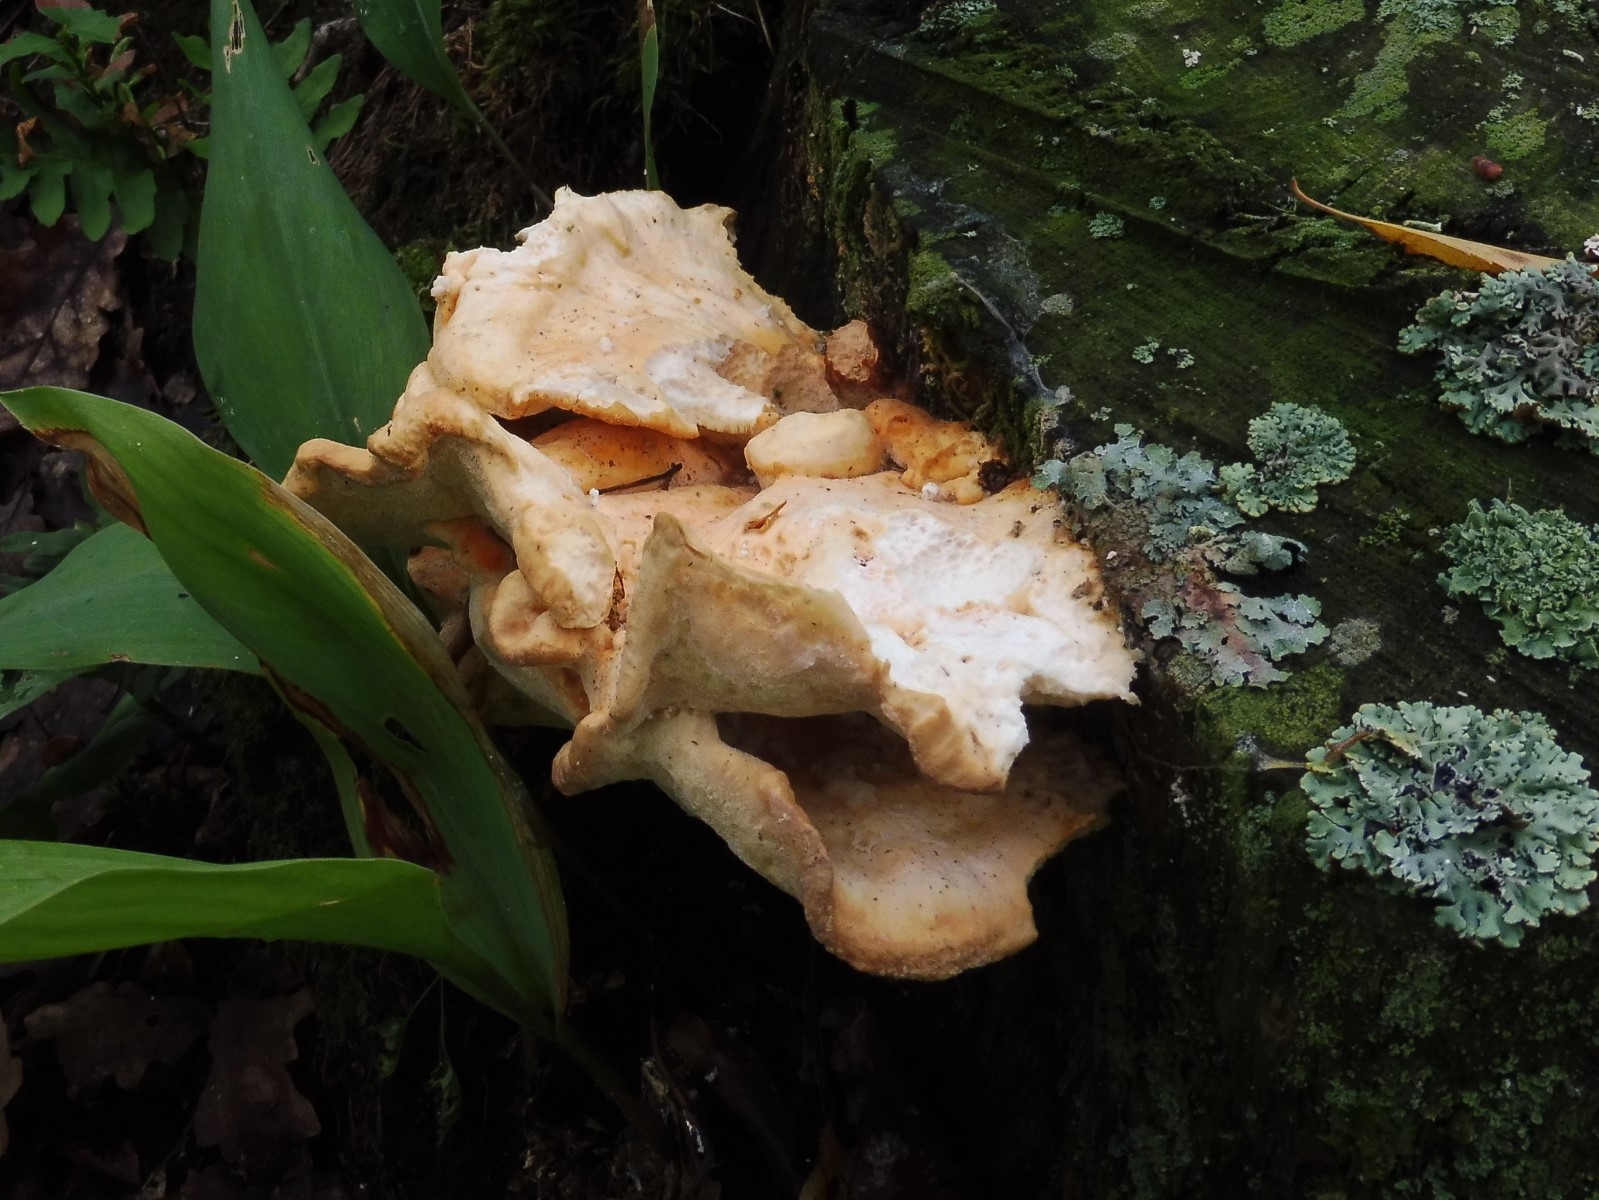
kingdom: Fungi
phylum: Basidiomycota
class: Agaricomycetes
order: Polyporales
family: Laetiporaceae
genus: Laetiporus
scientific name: Laetiporus sulphureus
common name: svovlporesvamp
